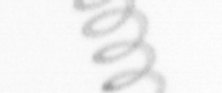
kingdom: Chromista
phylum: Ochrophyta
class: Bacillariophyceae
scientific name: Bacillariophyceae
